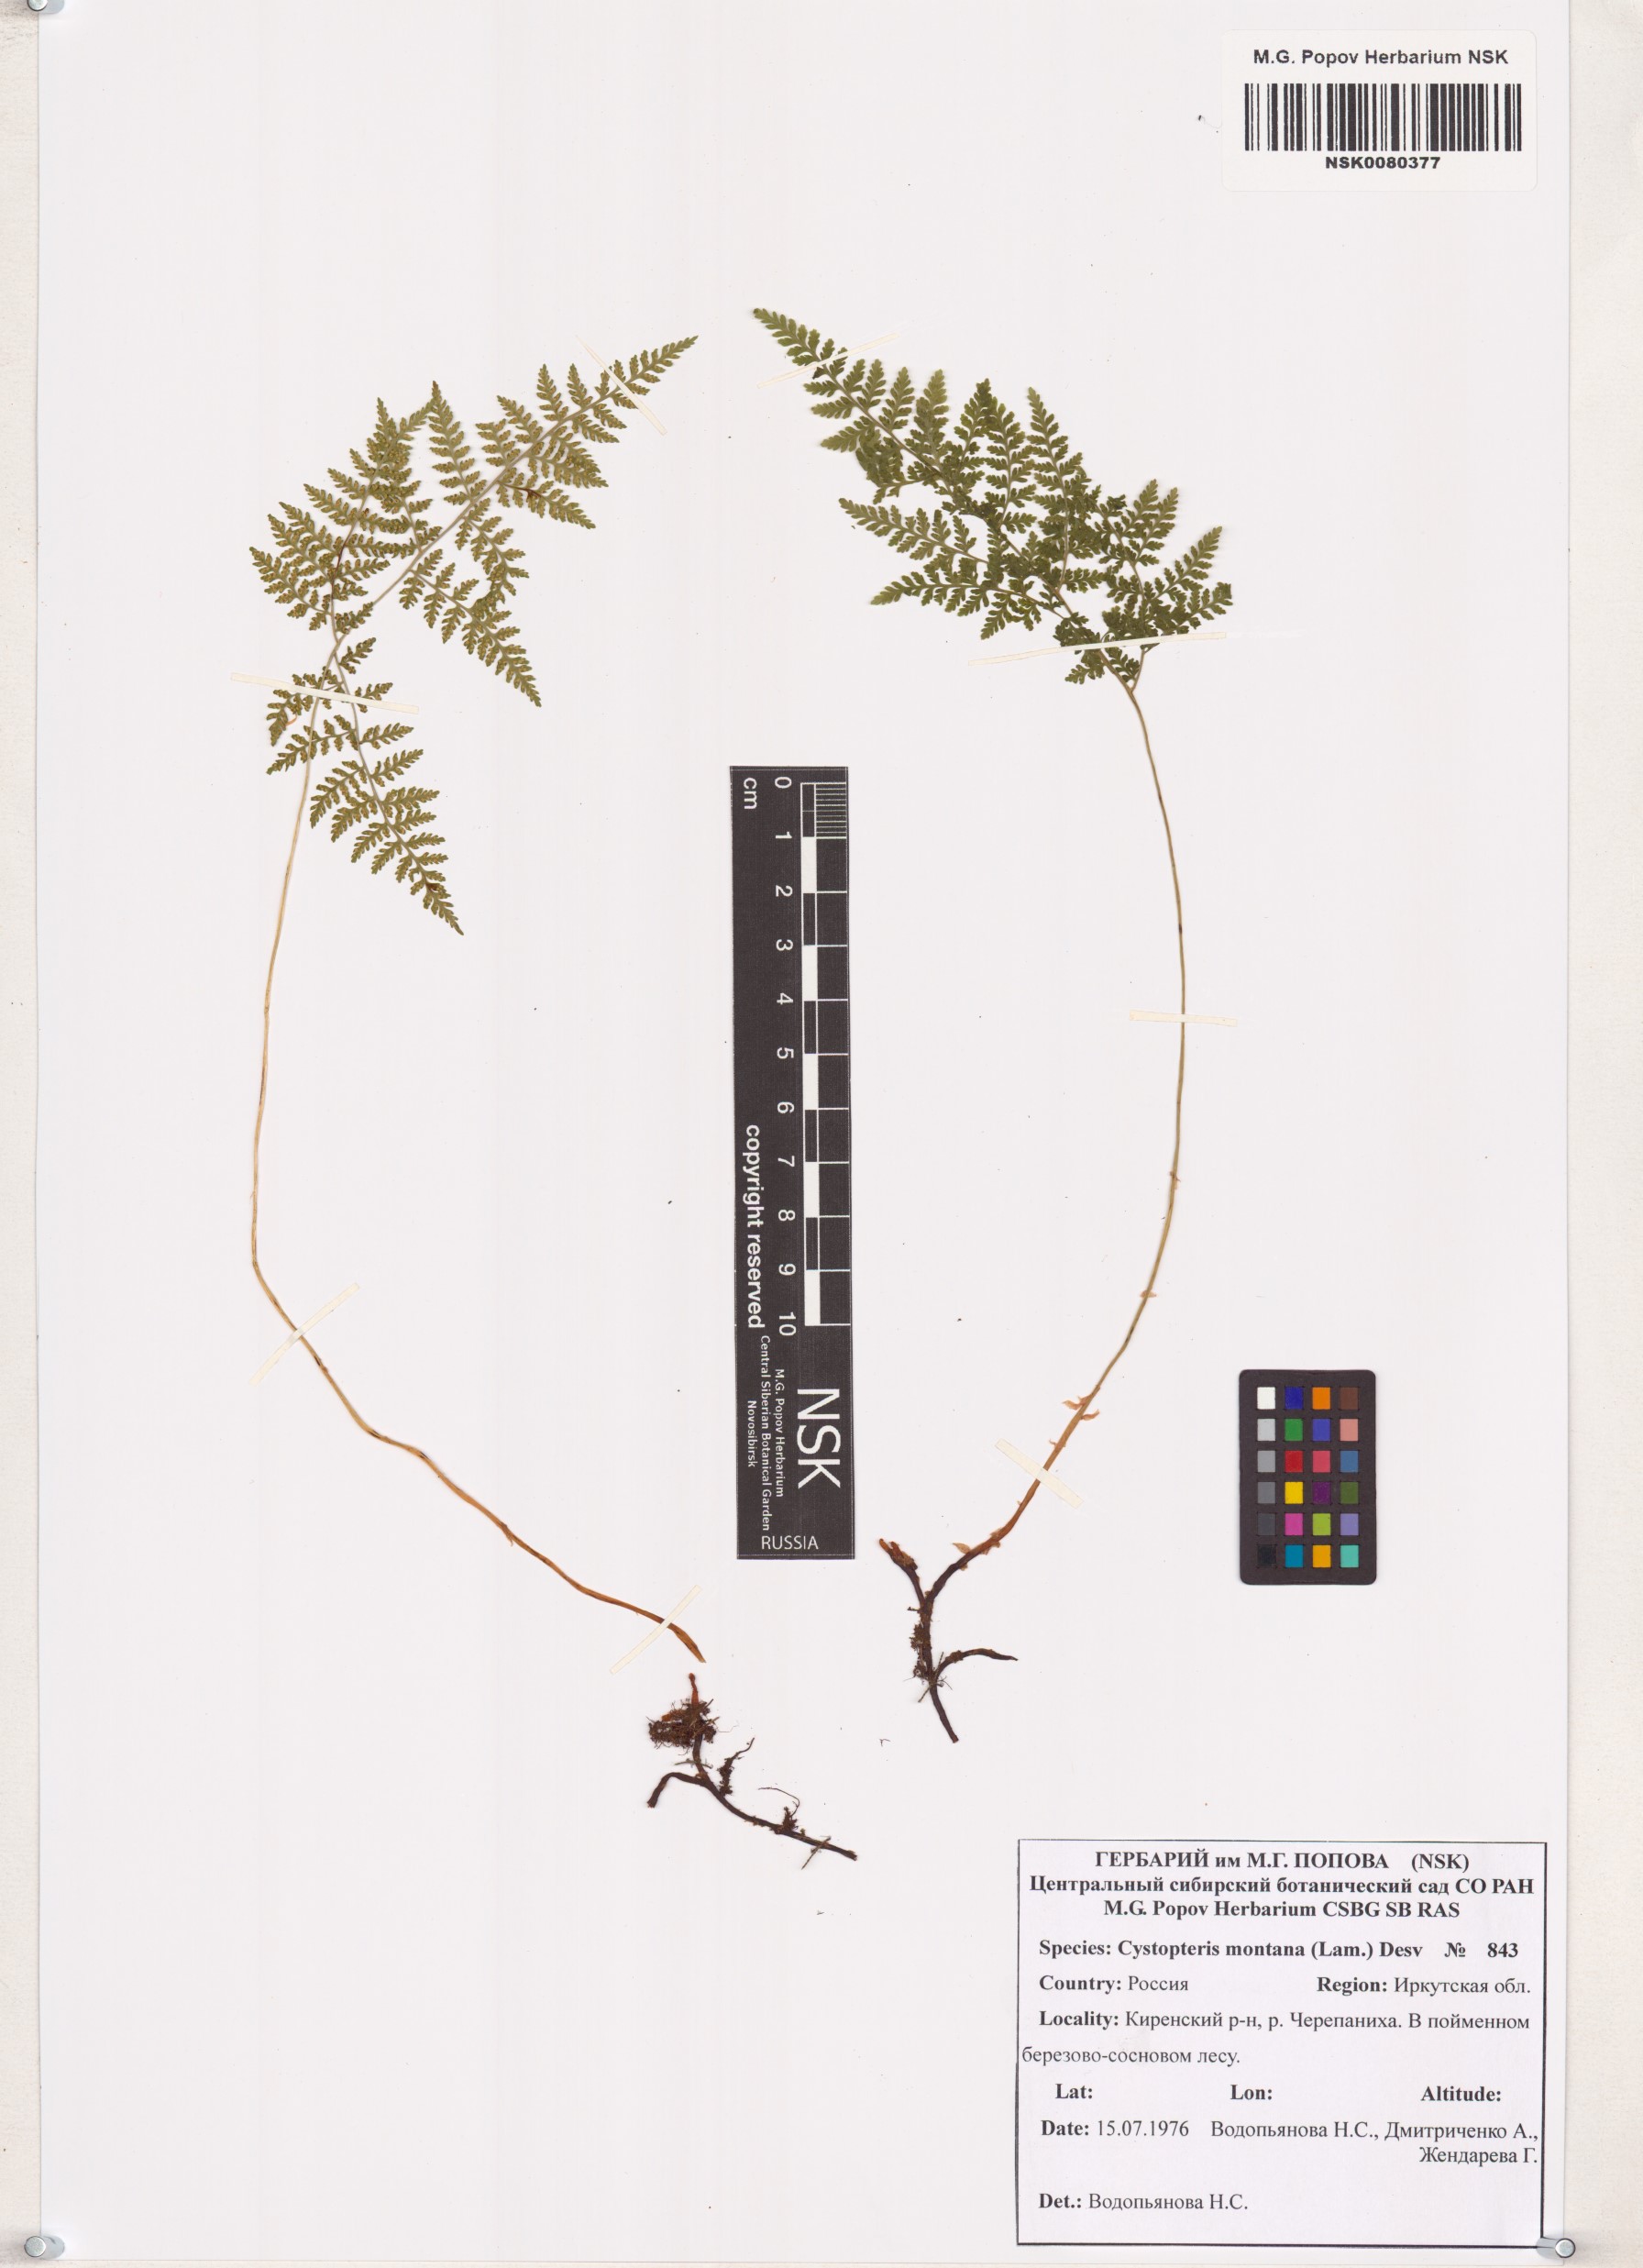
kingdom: Plantae
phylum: Tracheophyta
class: Polypodiopsida
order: Polypodiales
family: Cystopteridaceae
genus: Cystopteris
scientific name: Cystopteris montana
